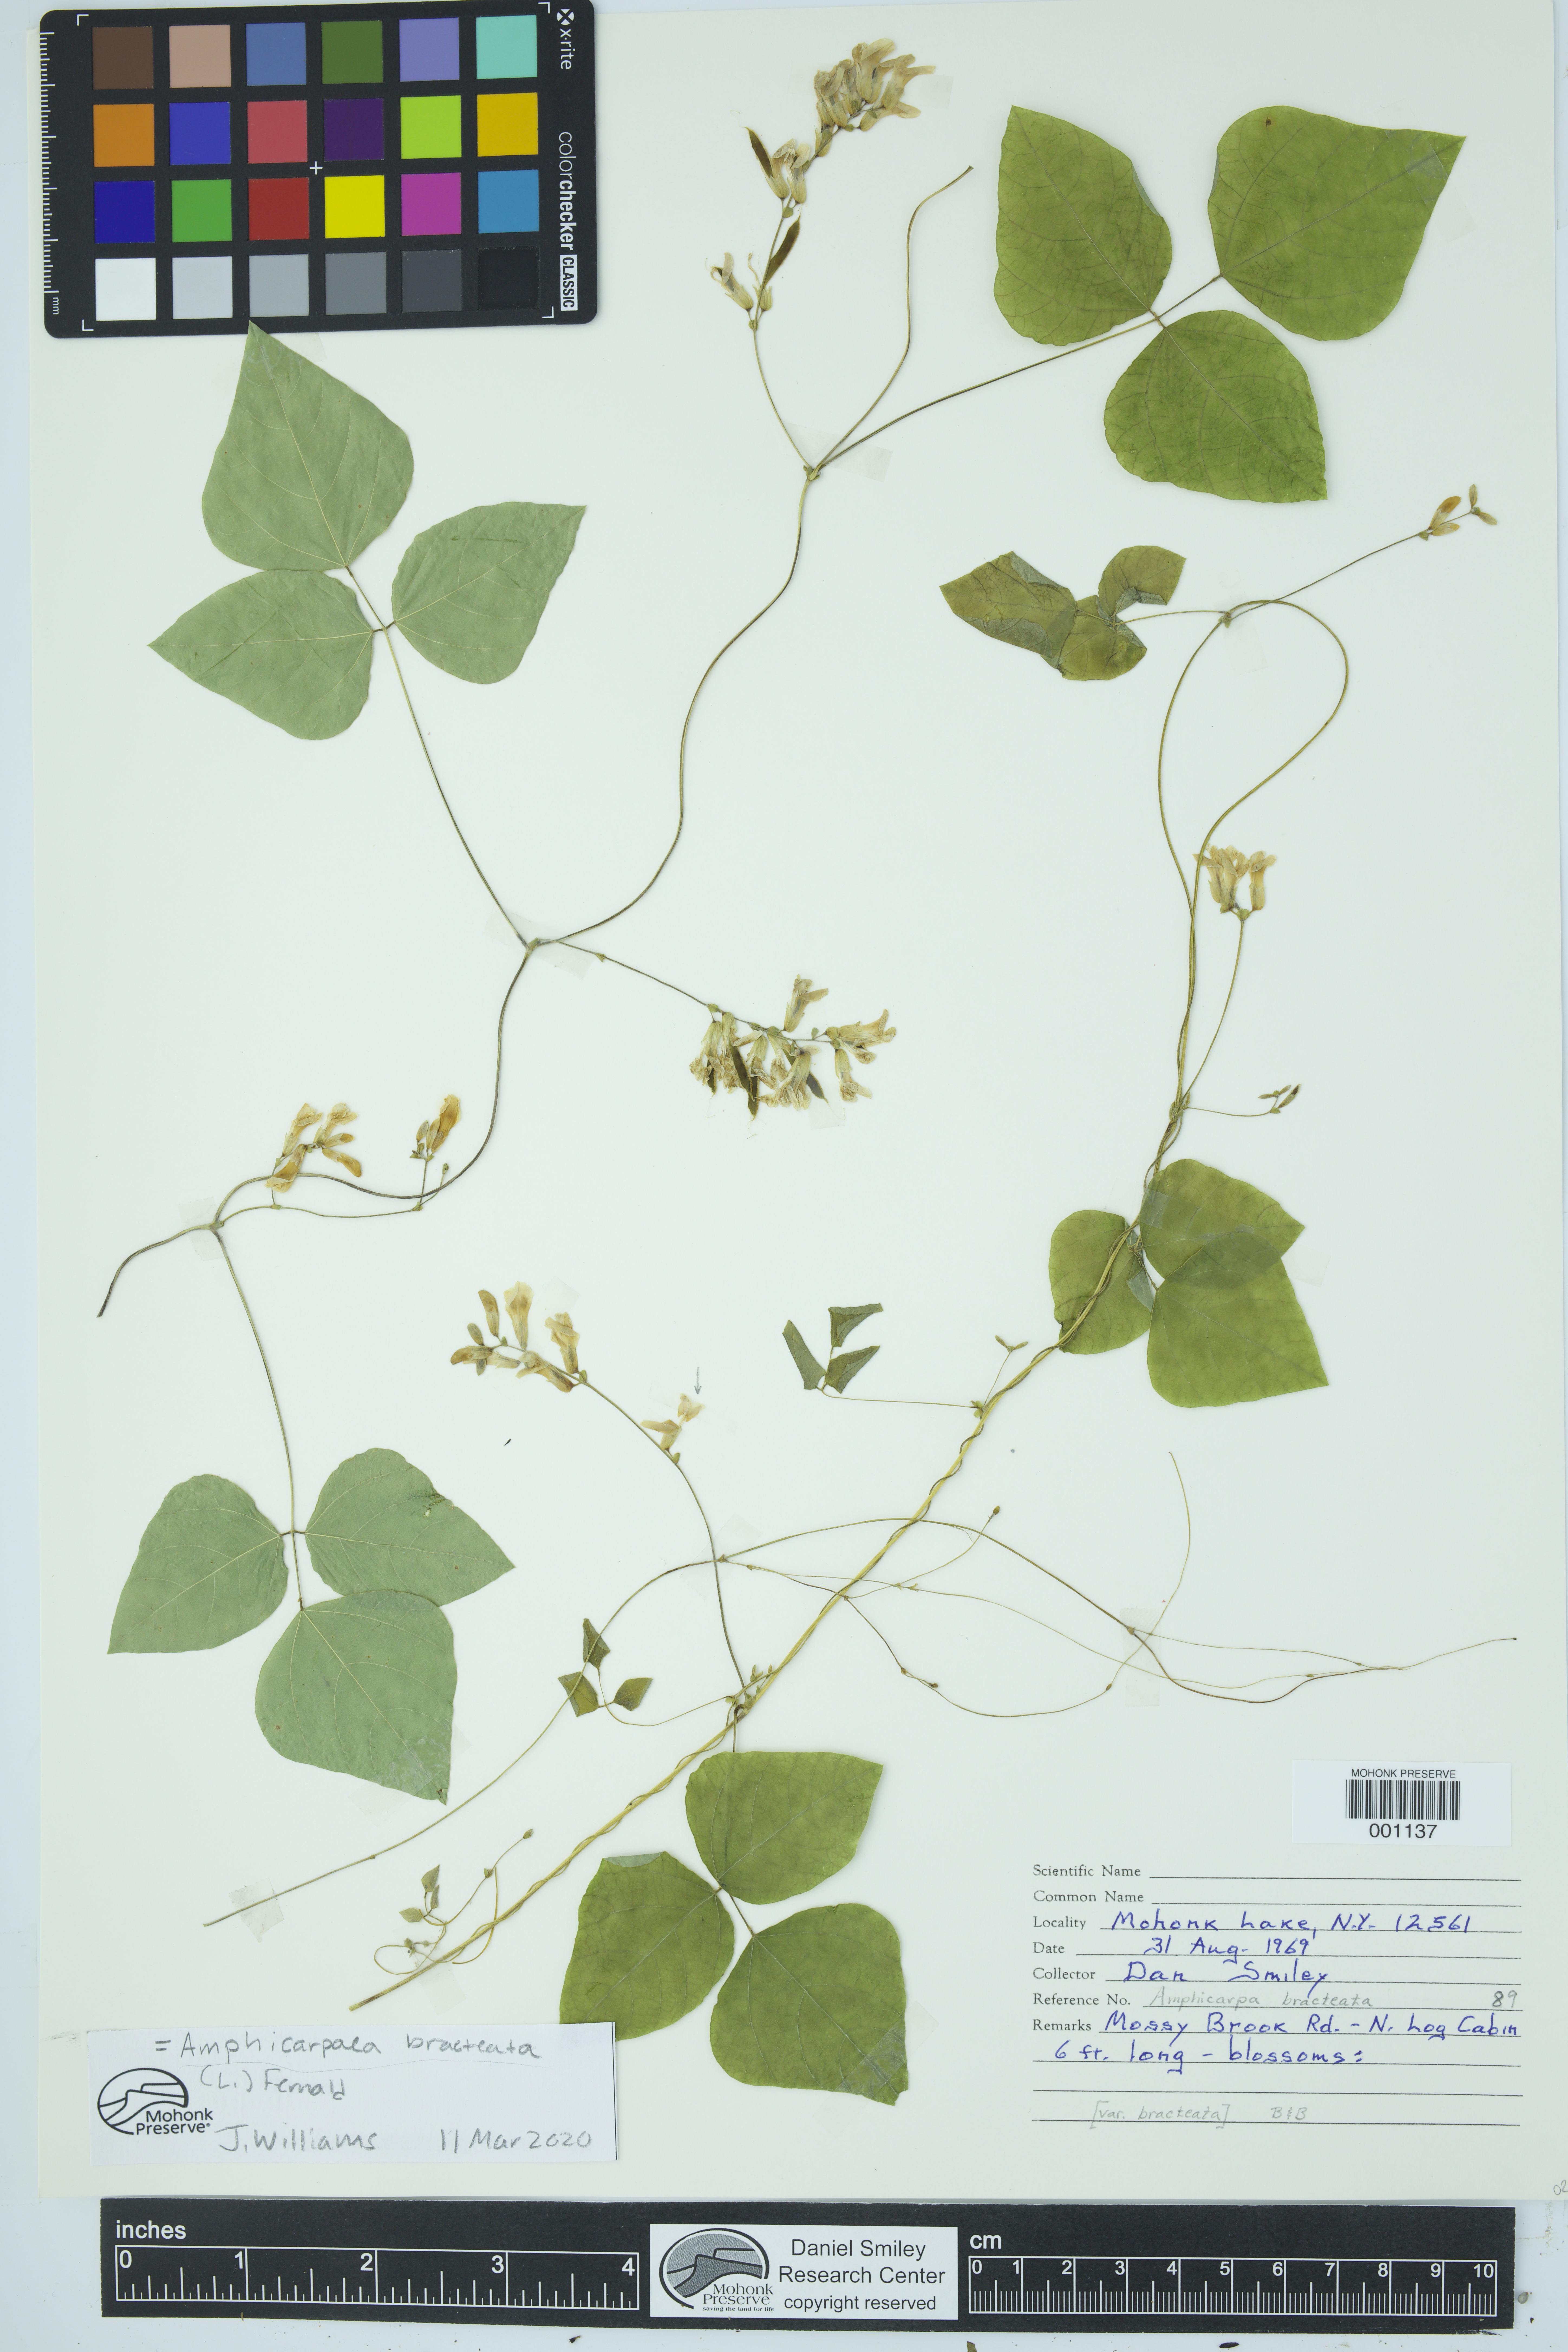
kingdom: Plantae
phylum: Tracheophyta
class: Magnoliopsida
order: Fabales
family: Fabaceae
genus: Amphicarpaea
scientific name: Amphicarpaea bracteata
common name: American hog peanut
